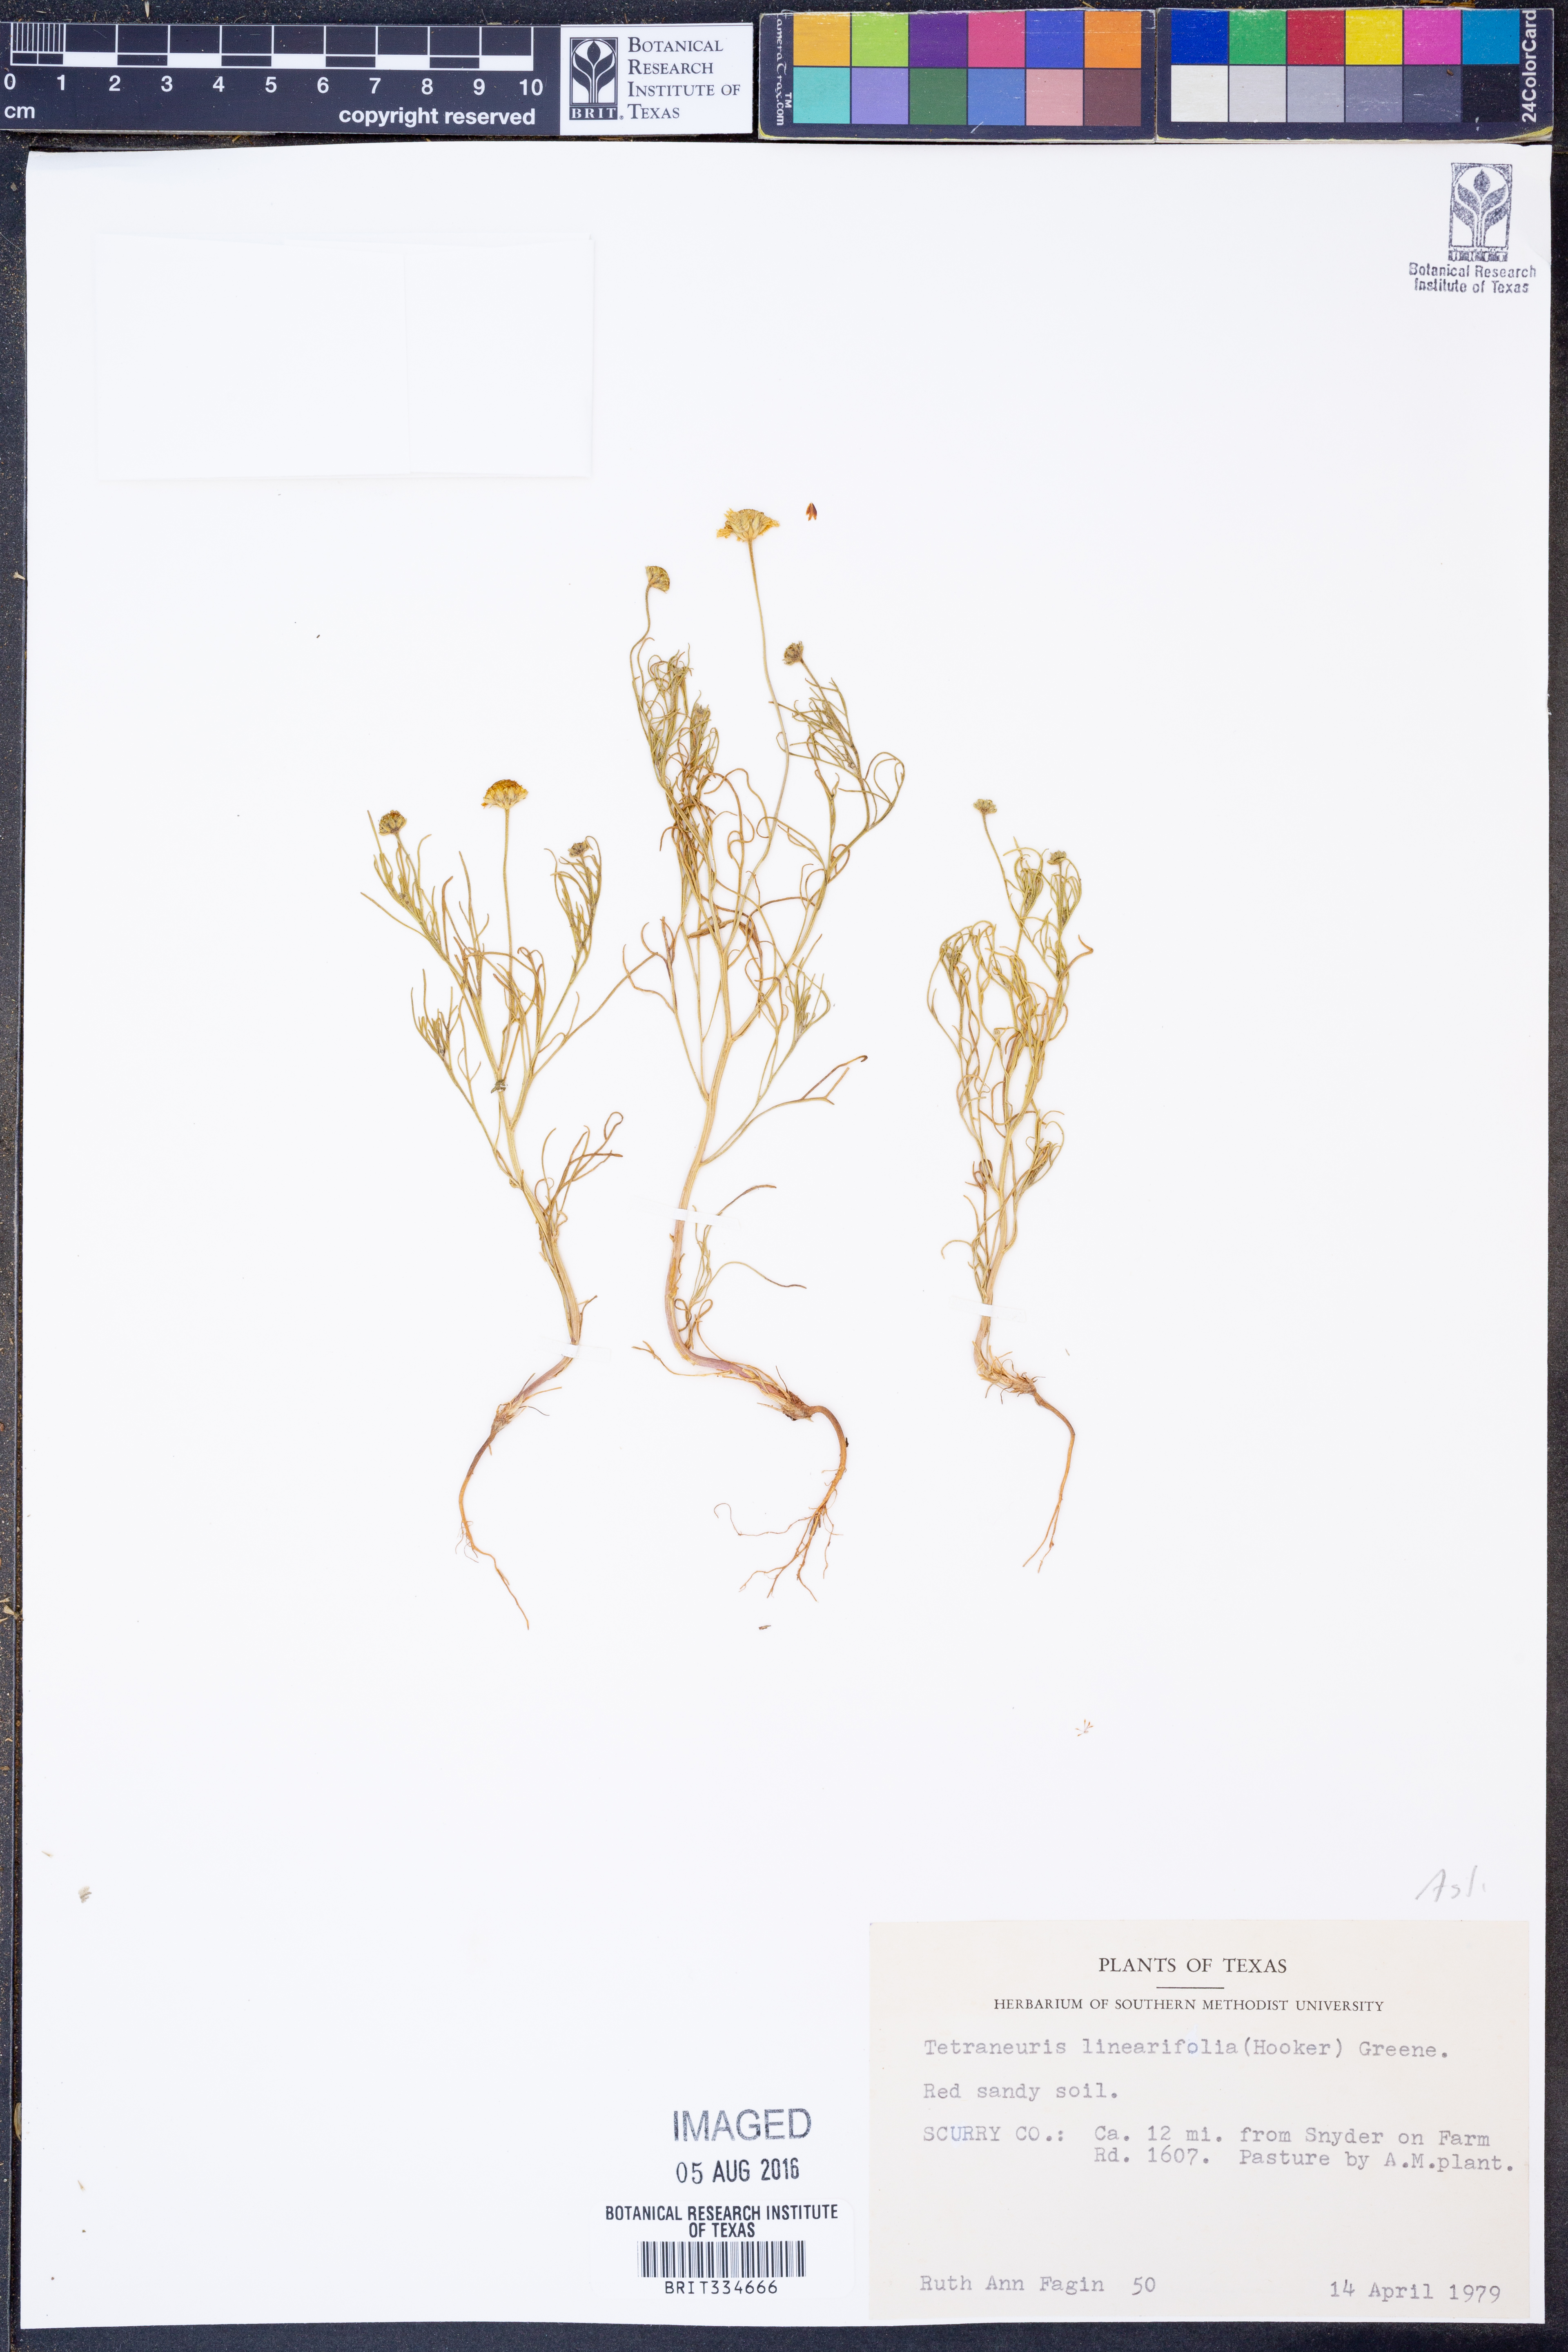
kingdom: Plantae
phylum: Tracheophyta
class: Magnoliopsida
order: Asterales
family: Asteraceae
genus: Tetraneuris
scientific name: Tetraneuris linearifolia
